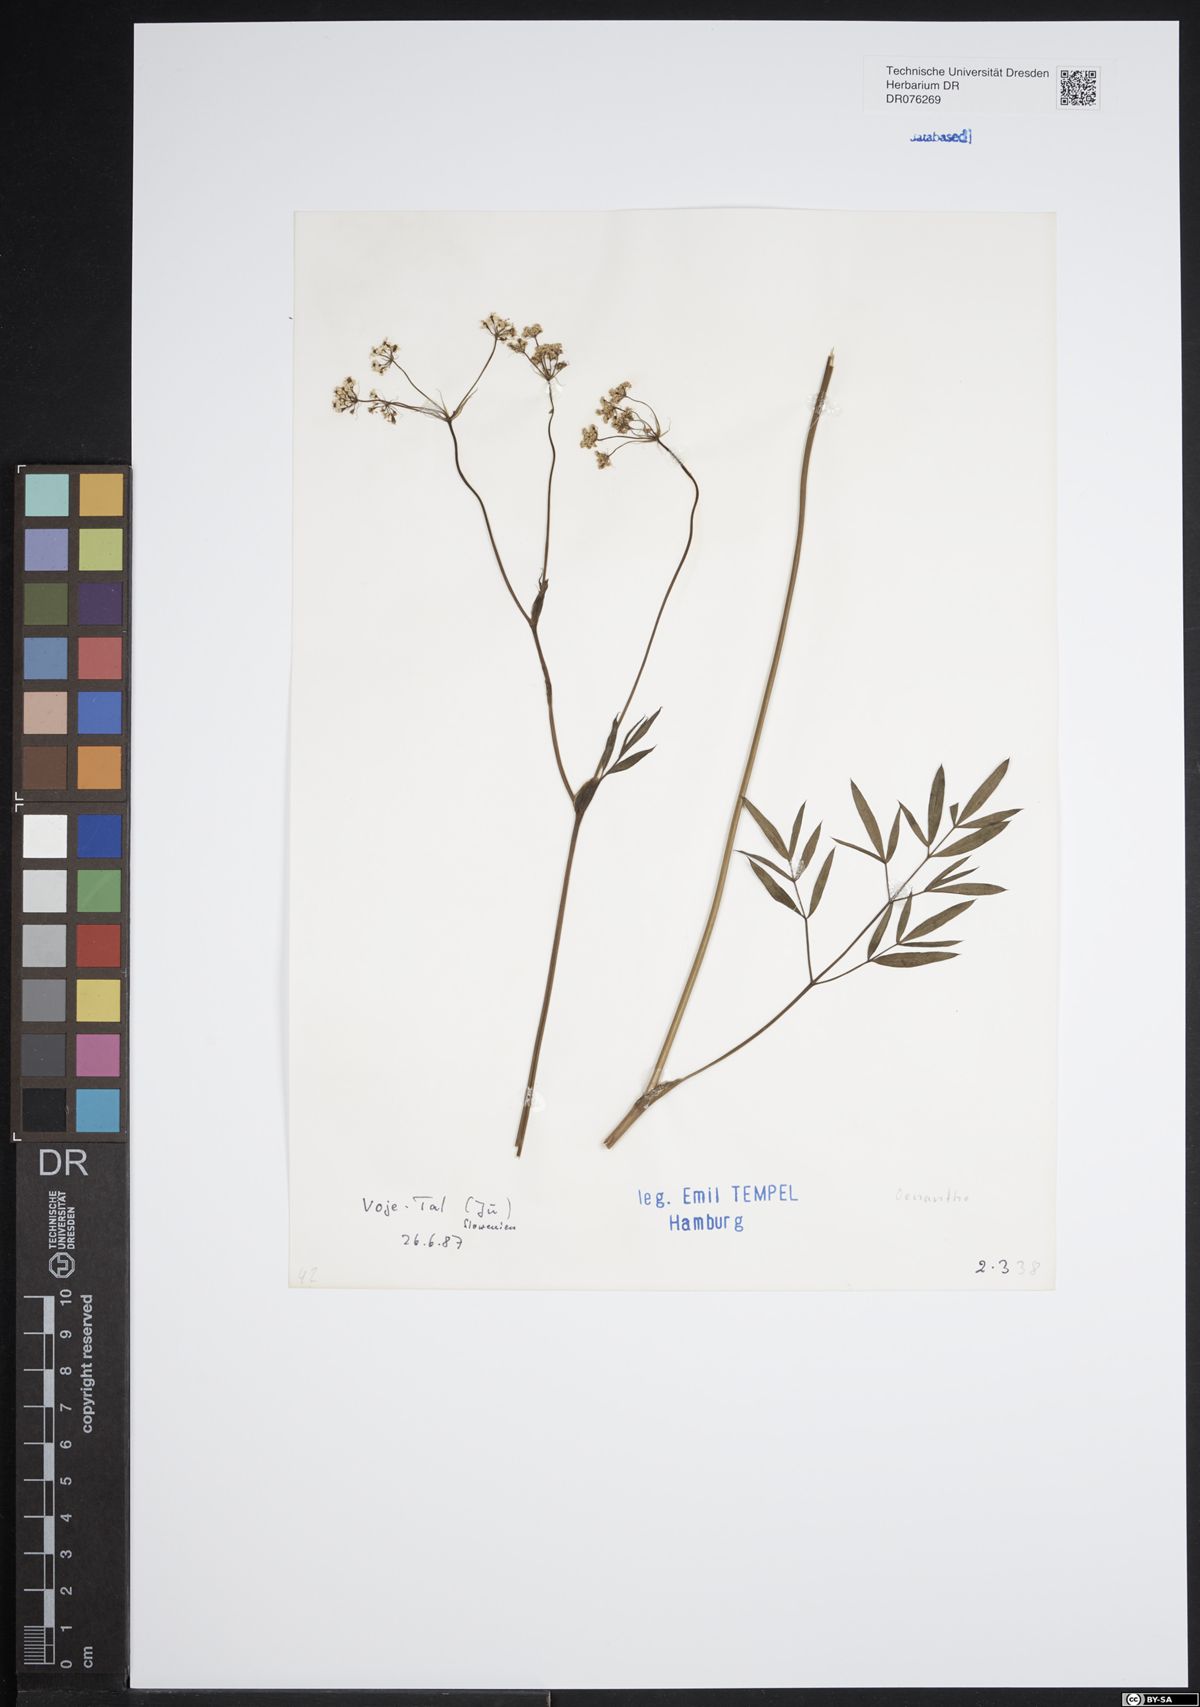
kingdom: Plantae
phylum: Tracheophyta
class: Magnoliopsida
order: Apiales
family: Apiaceae
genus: Oenanthe
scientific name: Oenanthe
